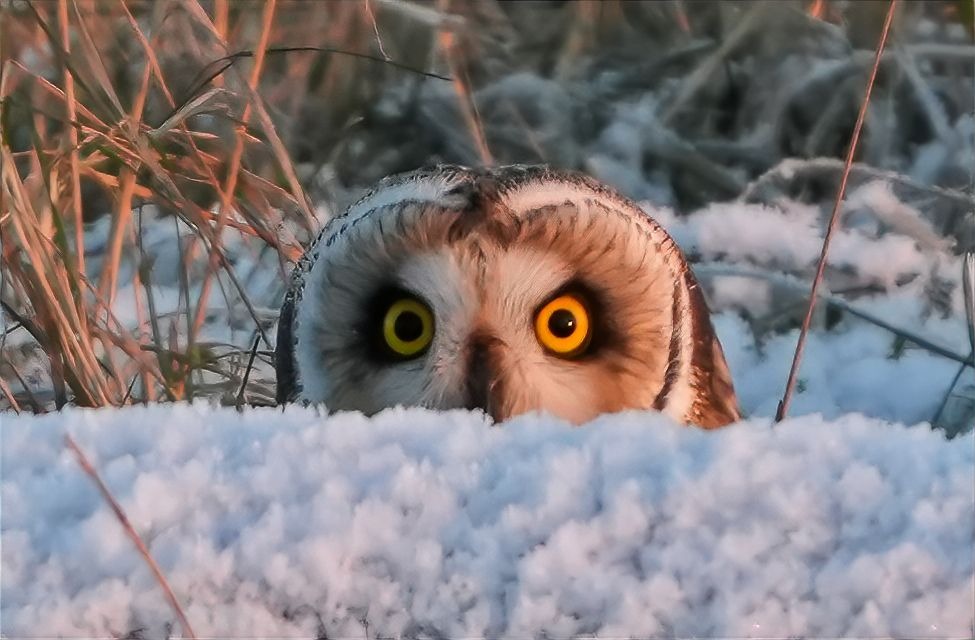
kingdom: Animalia
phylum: Chordata
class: Aves
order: Strigiformes
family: Strigidae
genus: Asio
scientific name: Asio flammeus
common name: Mosehornugle
